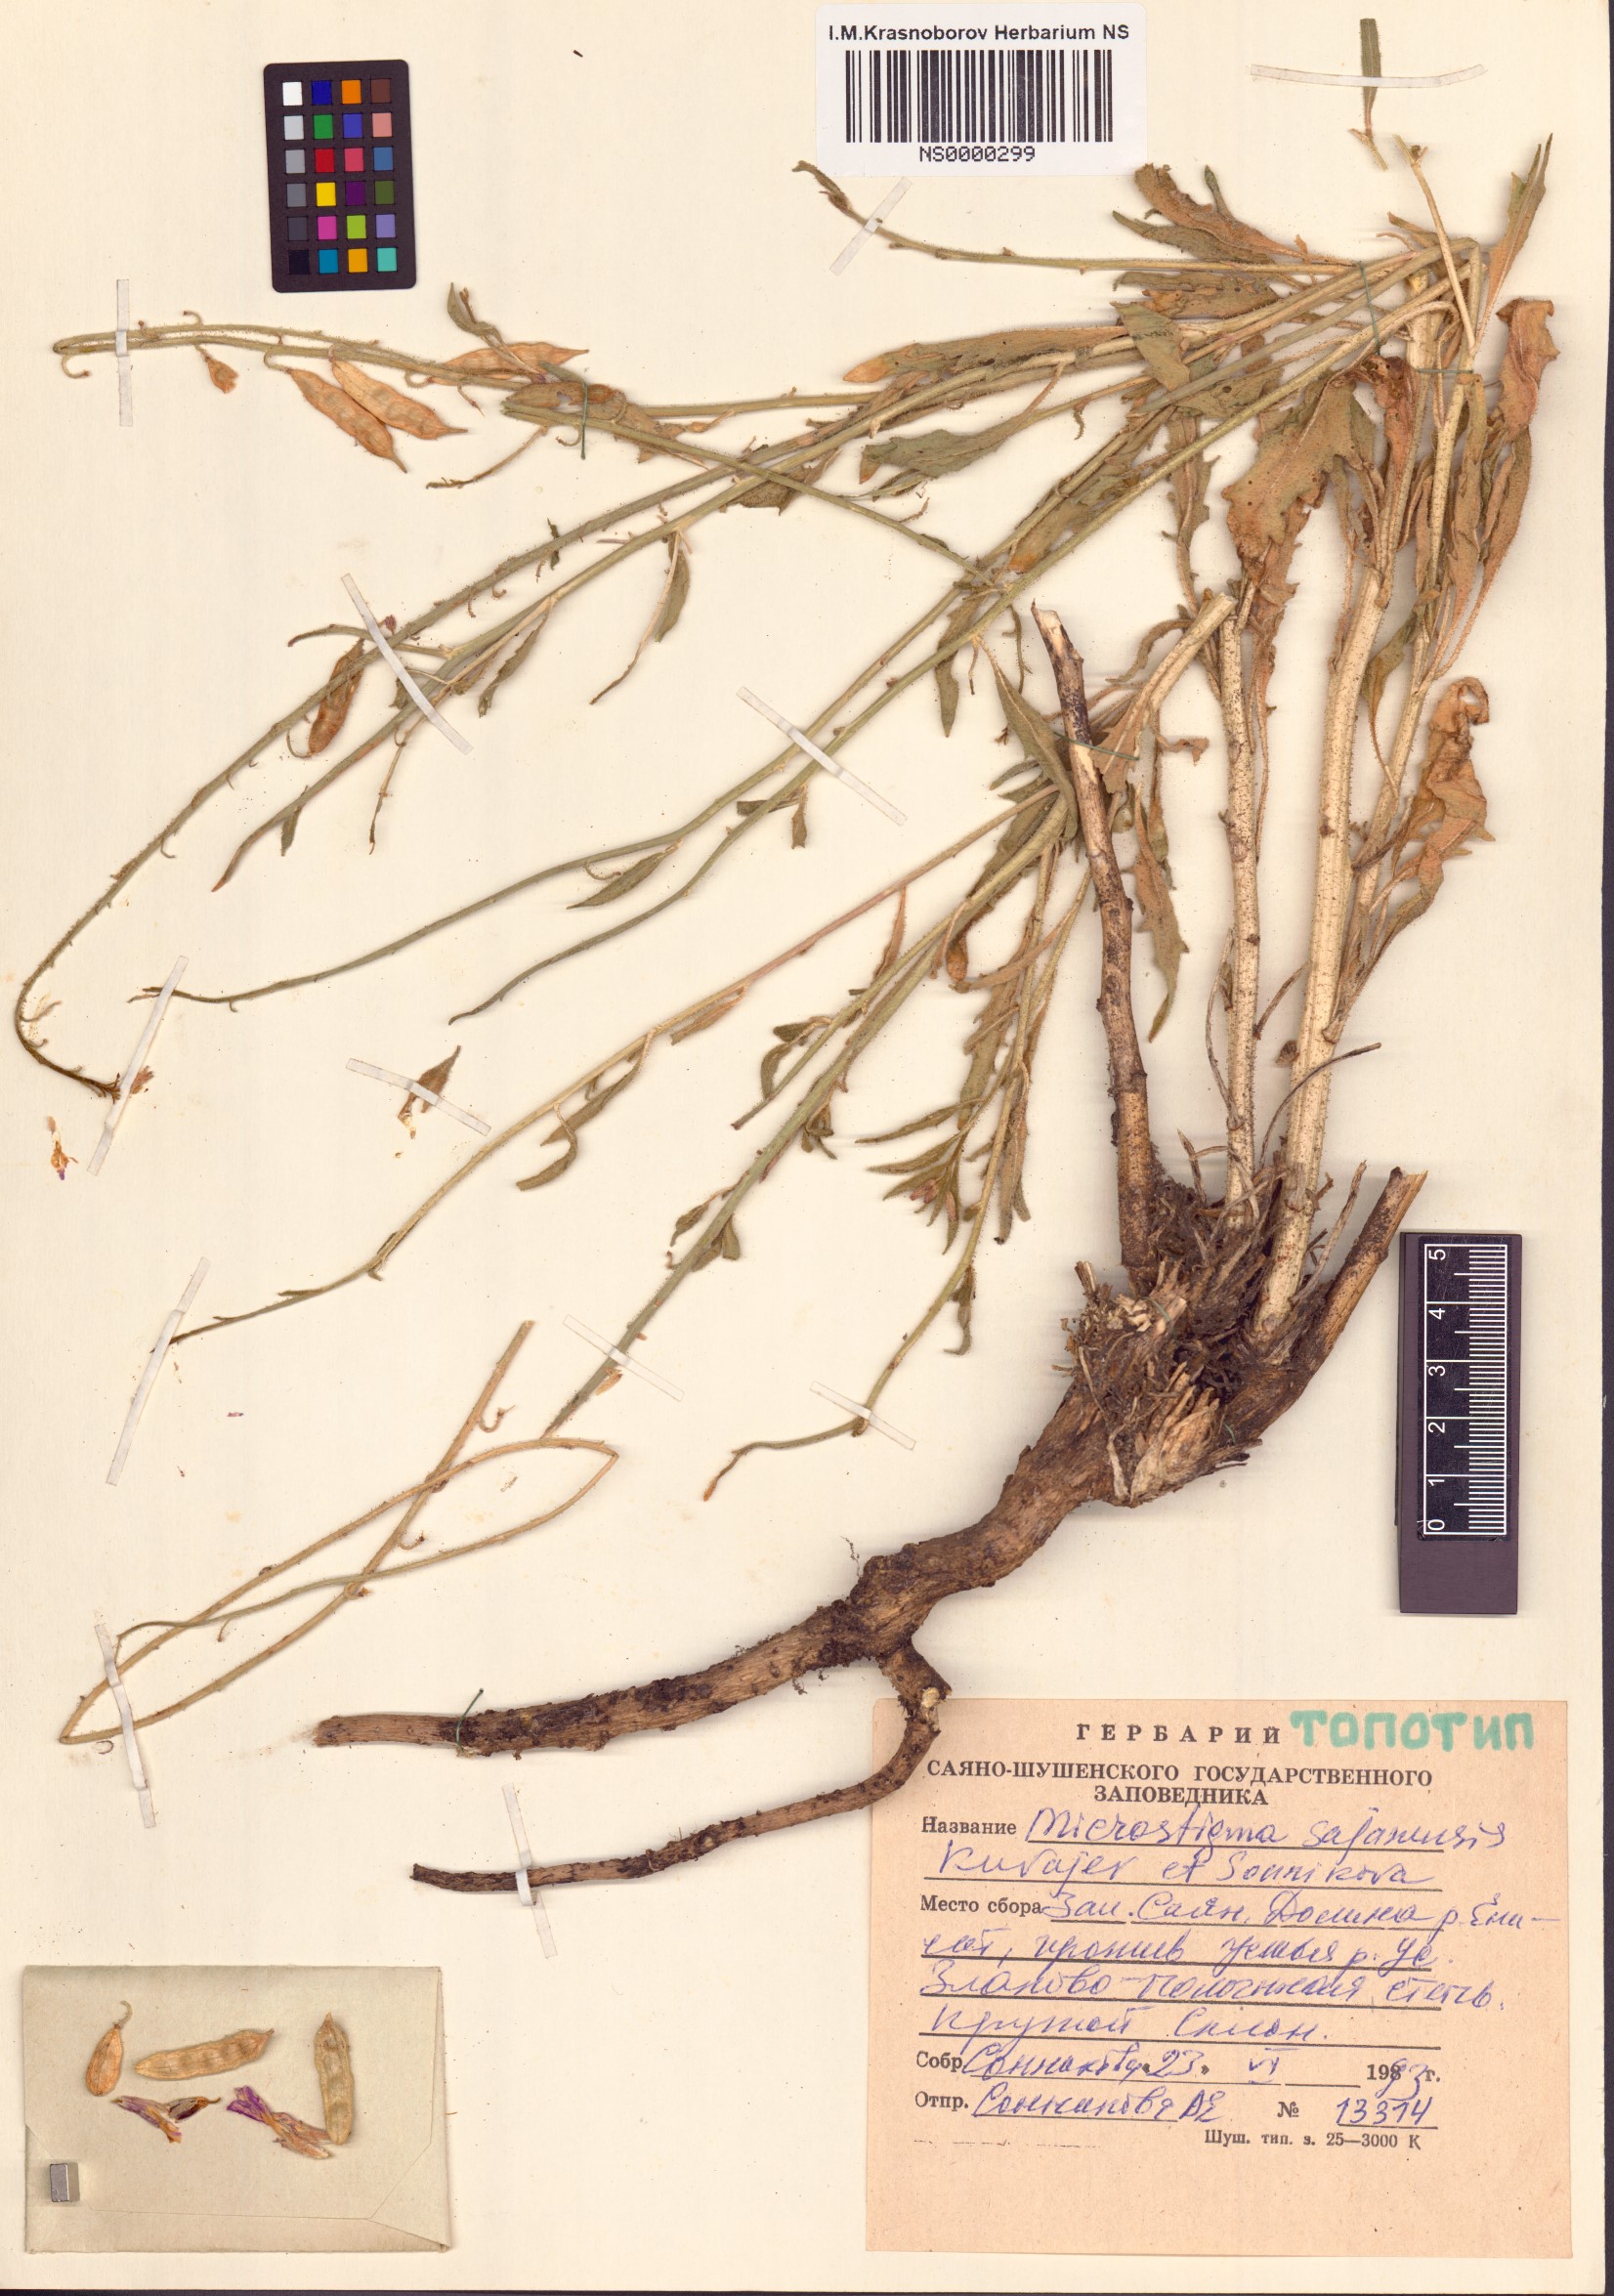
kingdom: Plantae
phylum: Tracheophyta
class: Magnoliopsida
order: Brassicales
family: Brassicaceae
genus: Microstigma
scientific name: Microstigma sajanense
